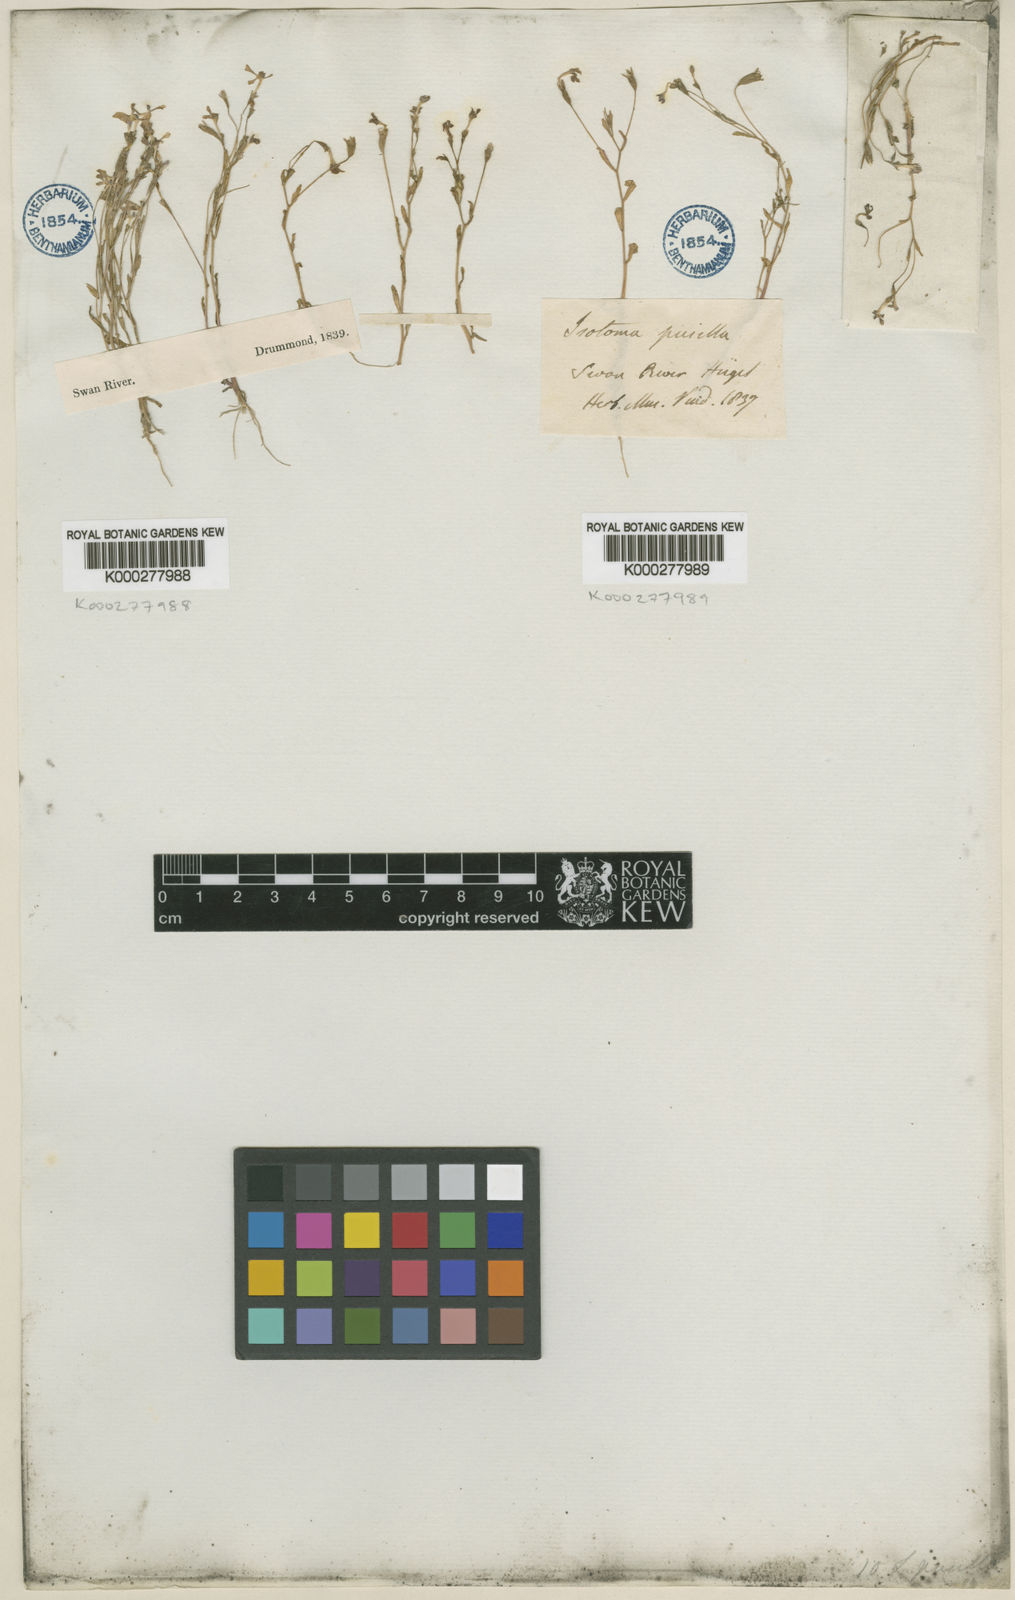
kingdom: Plantae
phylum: Tracheophyta
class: Magnoliopsida
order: Asterales
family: Campanulaceae
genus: Isotoma
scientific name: Isotoma pusilla
